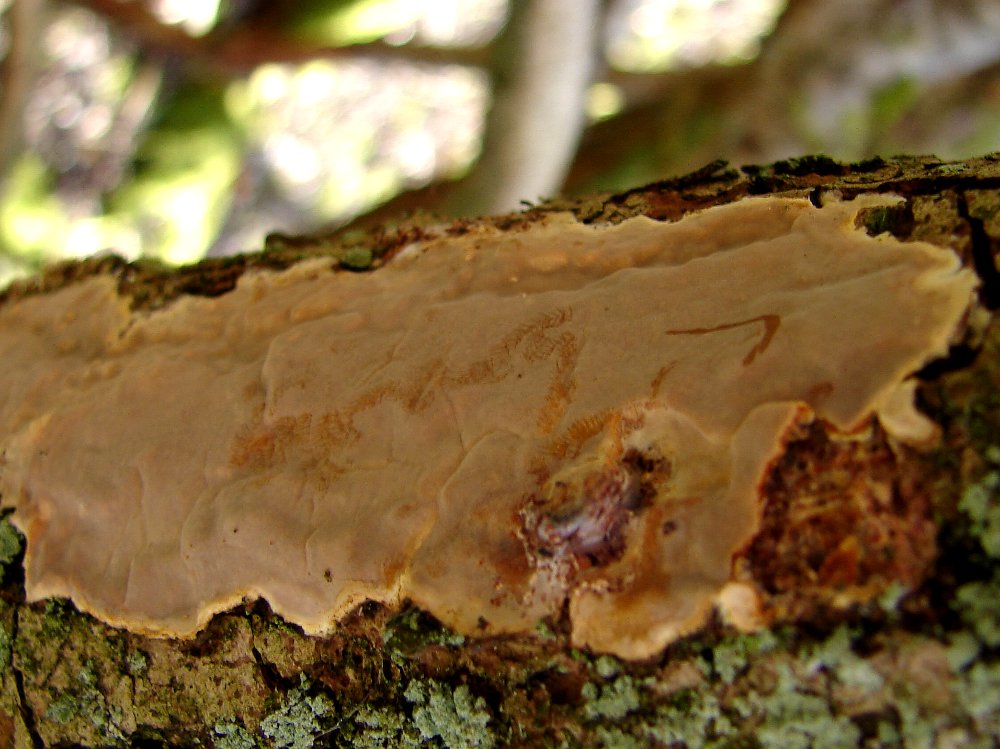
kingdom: Fungi
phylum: Basidiomycota
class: Agaricomycetes
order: Russulales
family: Peniophoraceae
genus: Scytinostroma
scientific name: Scytinostroma hemidichophyticum
